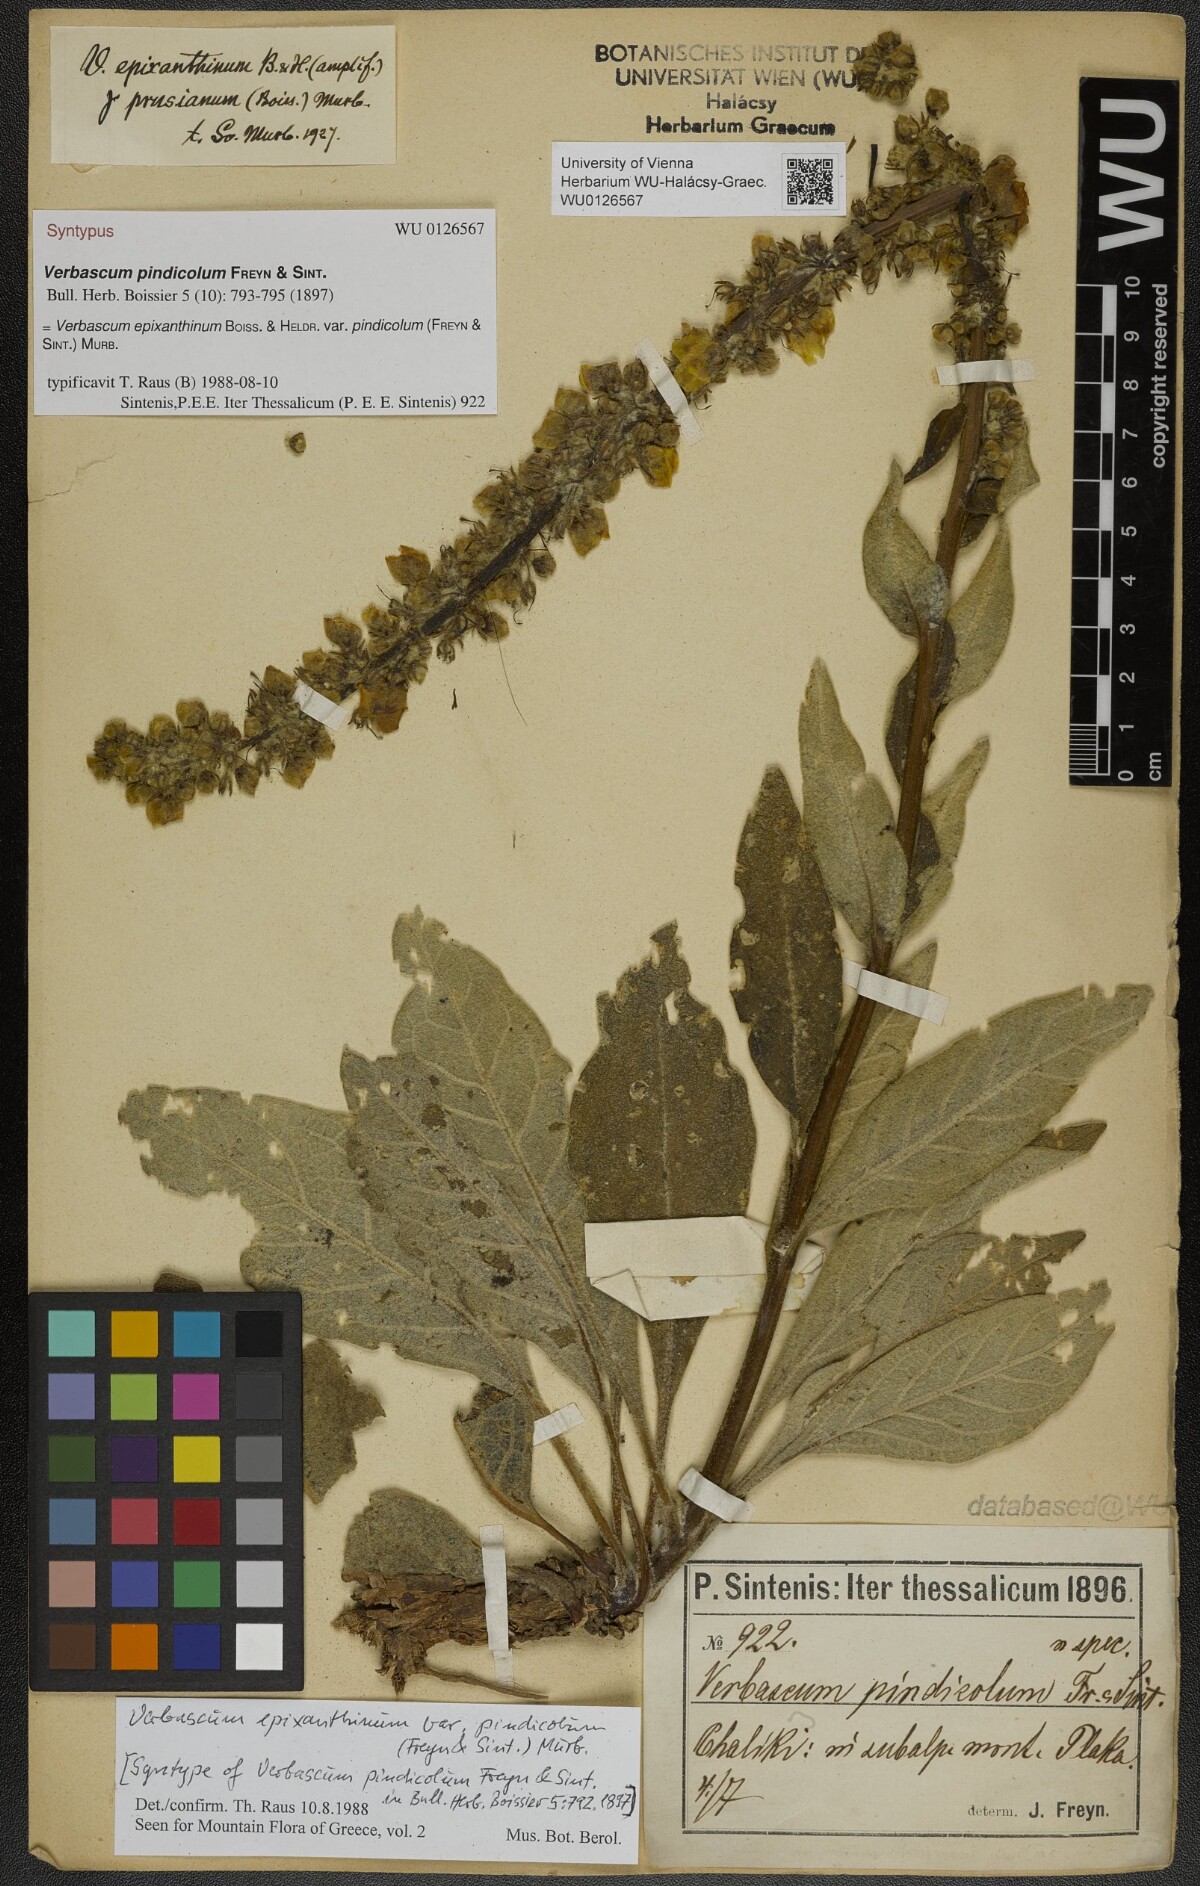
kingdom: Plantae
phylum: Tracheophyta
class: Magnoliopsida
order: Lamiales
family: Scrophulariaceae
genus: Verbascum
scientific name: Verbascum epixanthinum
